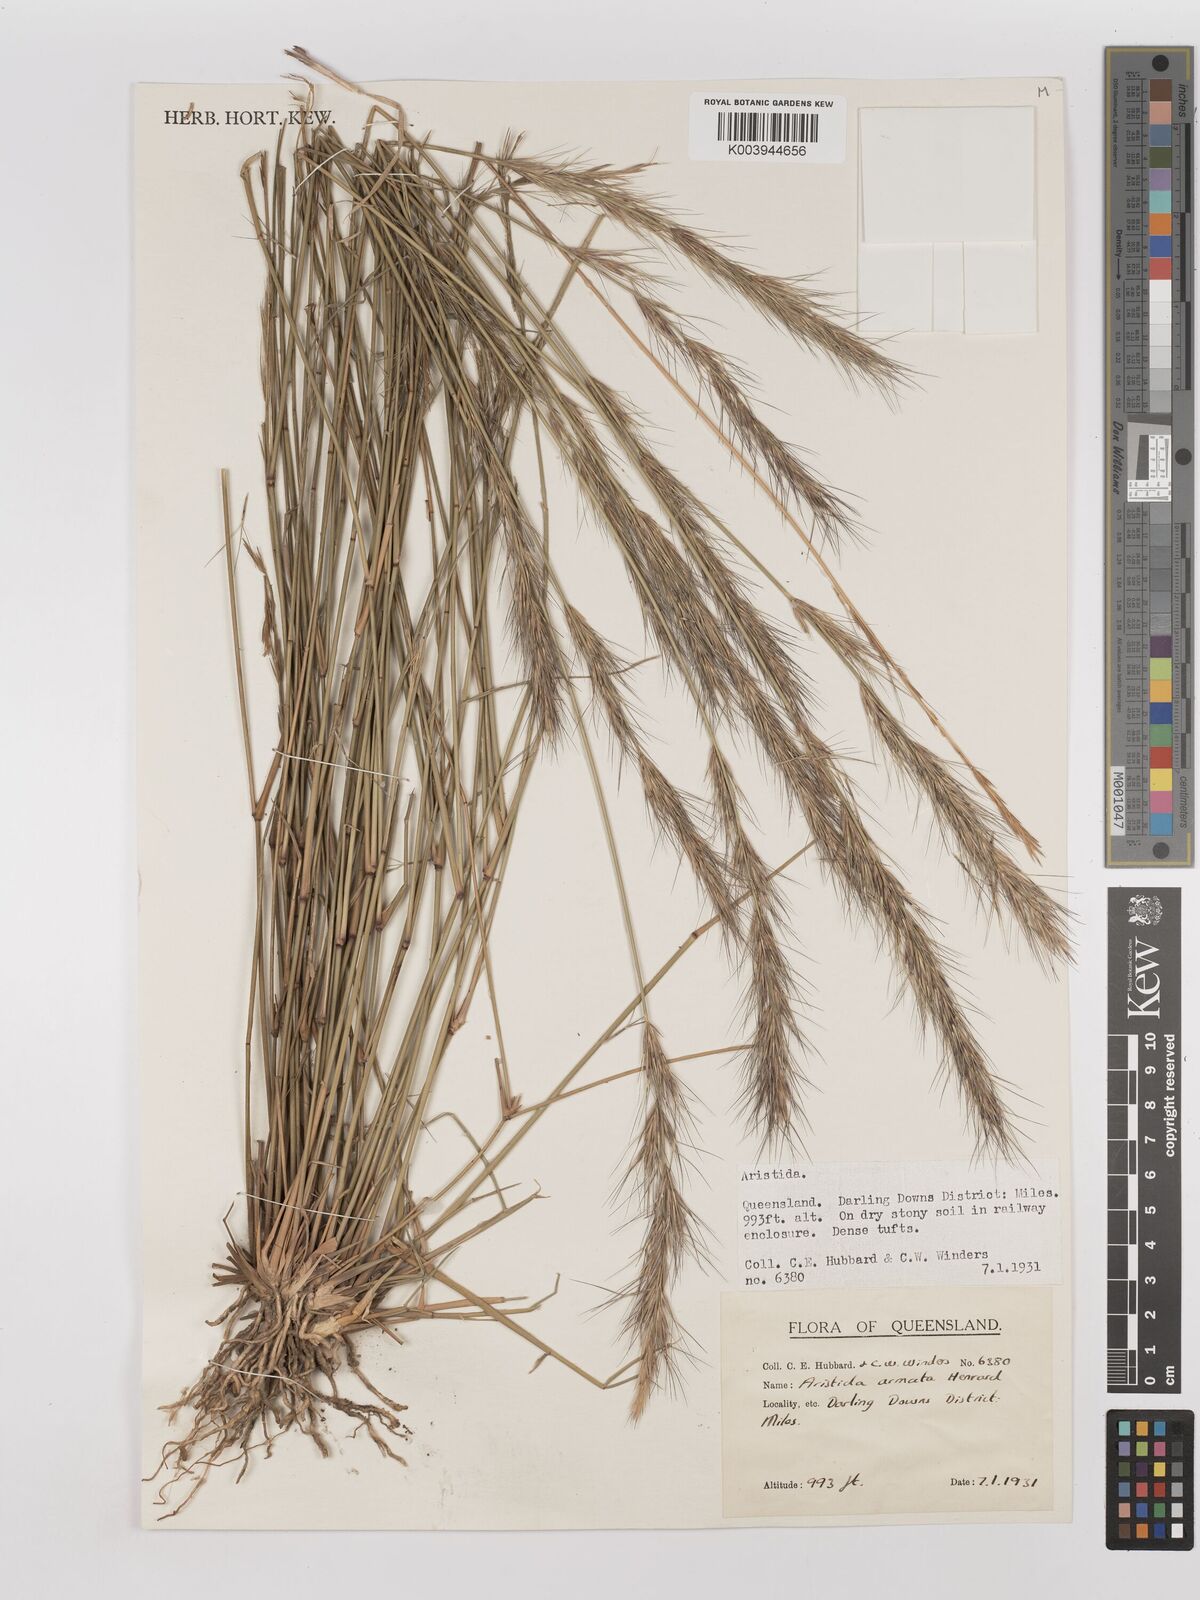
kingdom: Plantae
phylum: Tracheophyta
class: Liliopsida
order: Poales
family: Poaceae
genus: Aristida
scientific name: Aristida calycina
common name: Dark wire grass
